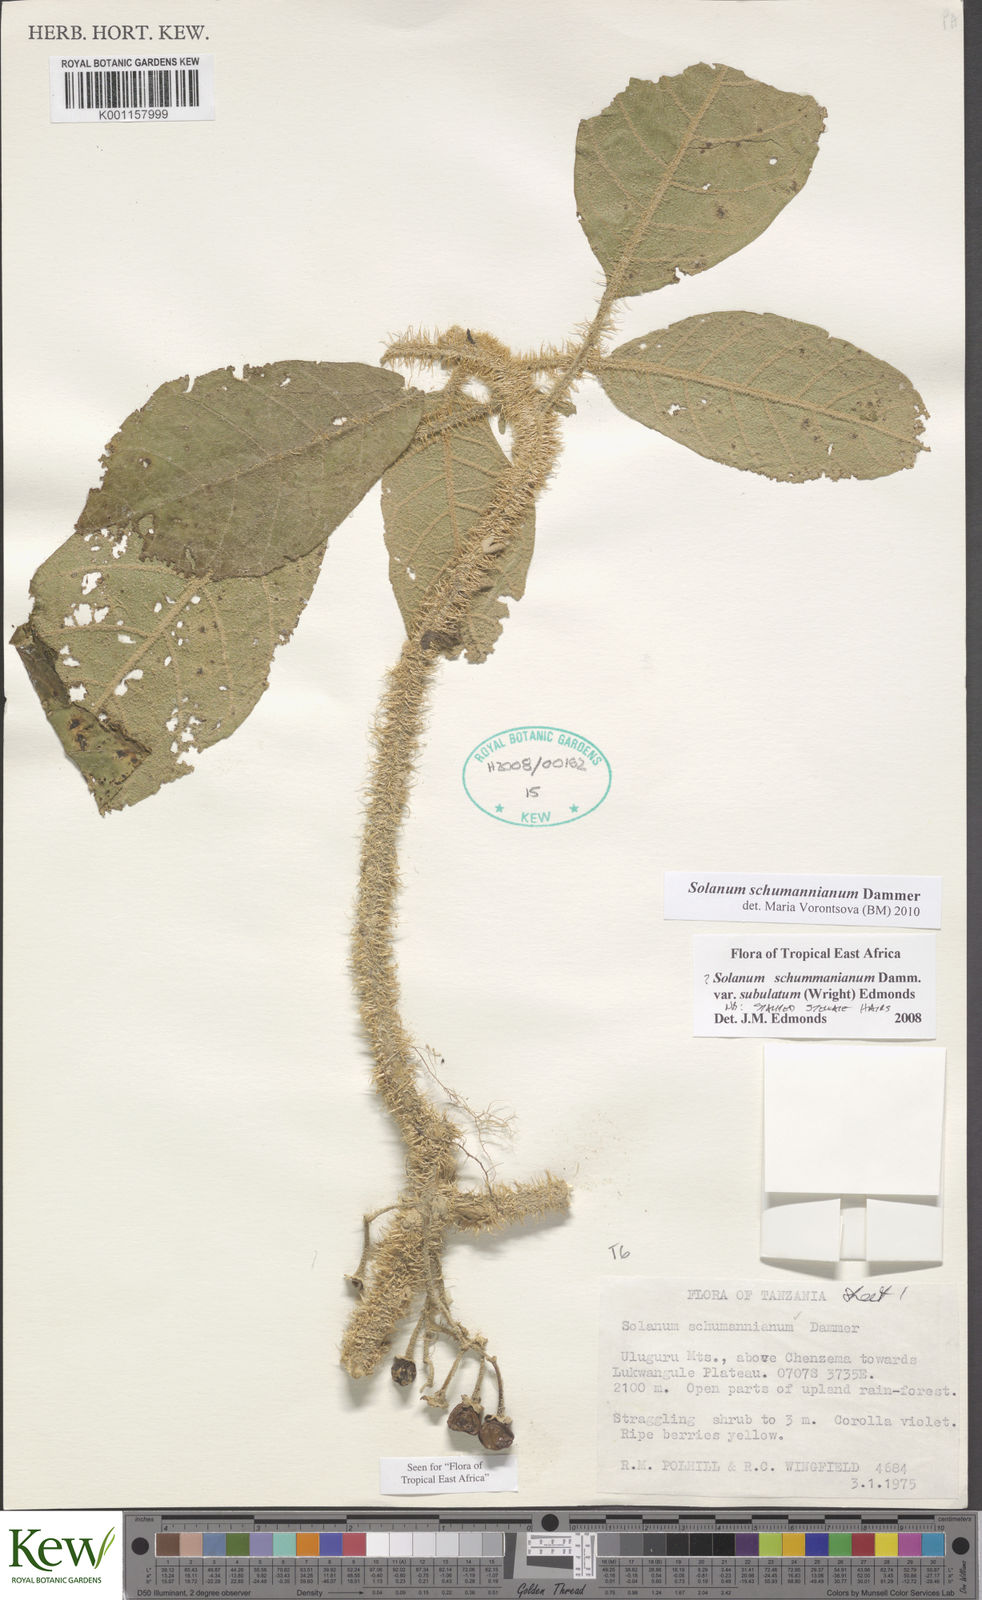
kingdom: Plantae
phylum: Tracheophyta
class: Magnoliopsida
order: Solanales
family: Solanaceae
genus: Solanum
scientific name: Solanum schumannianum
